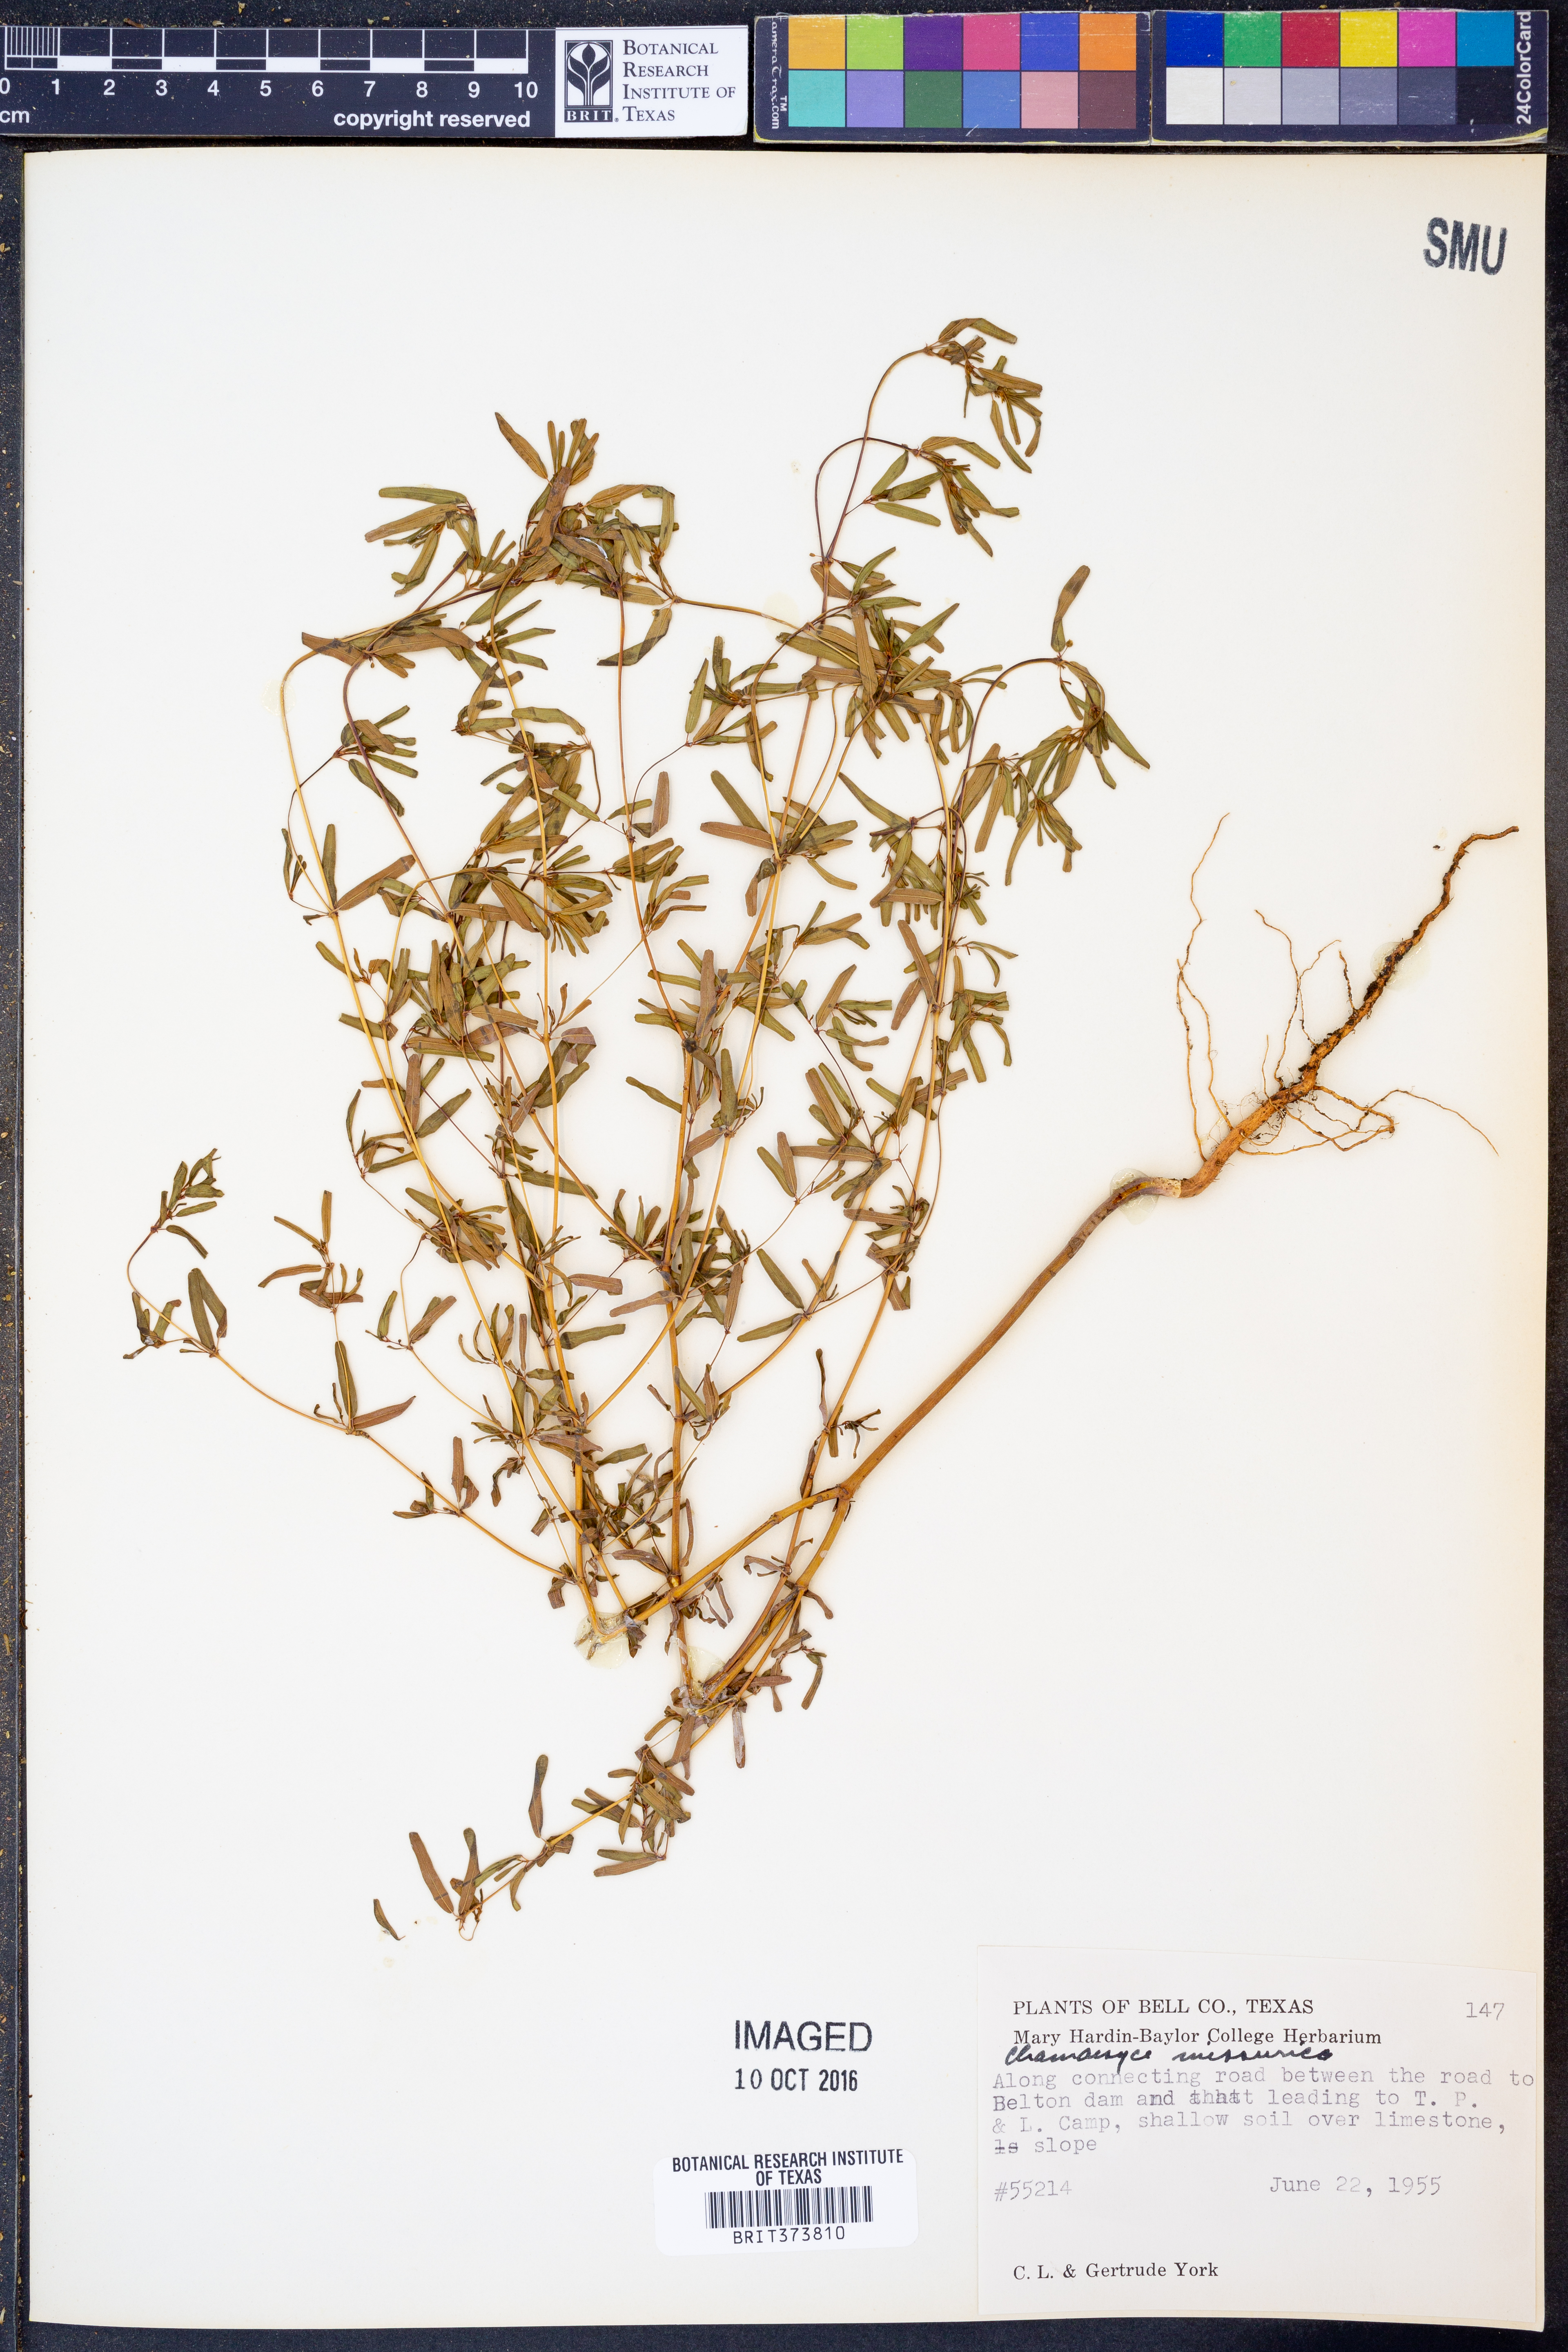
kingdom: Plantae
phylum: Tracheophyta
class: Magnoliopsida
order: Malpighiales
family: Euphorbiaceae
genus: Euphorbia
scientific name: Euphorbia missurica
